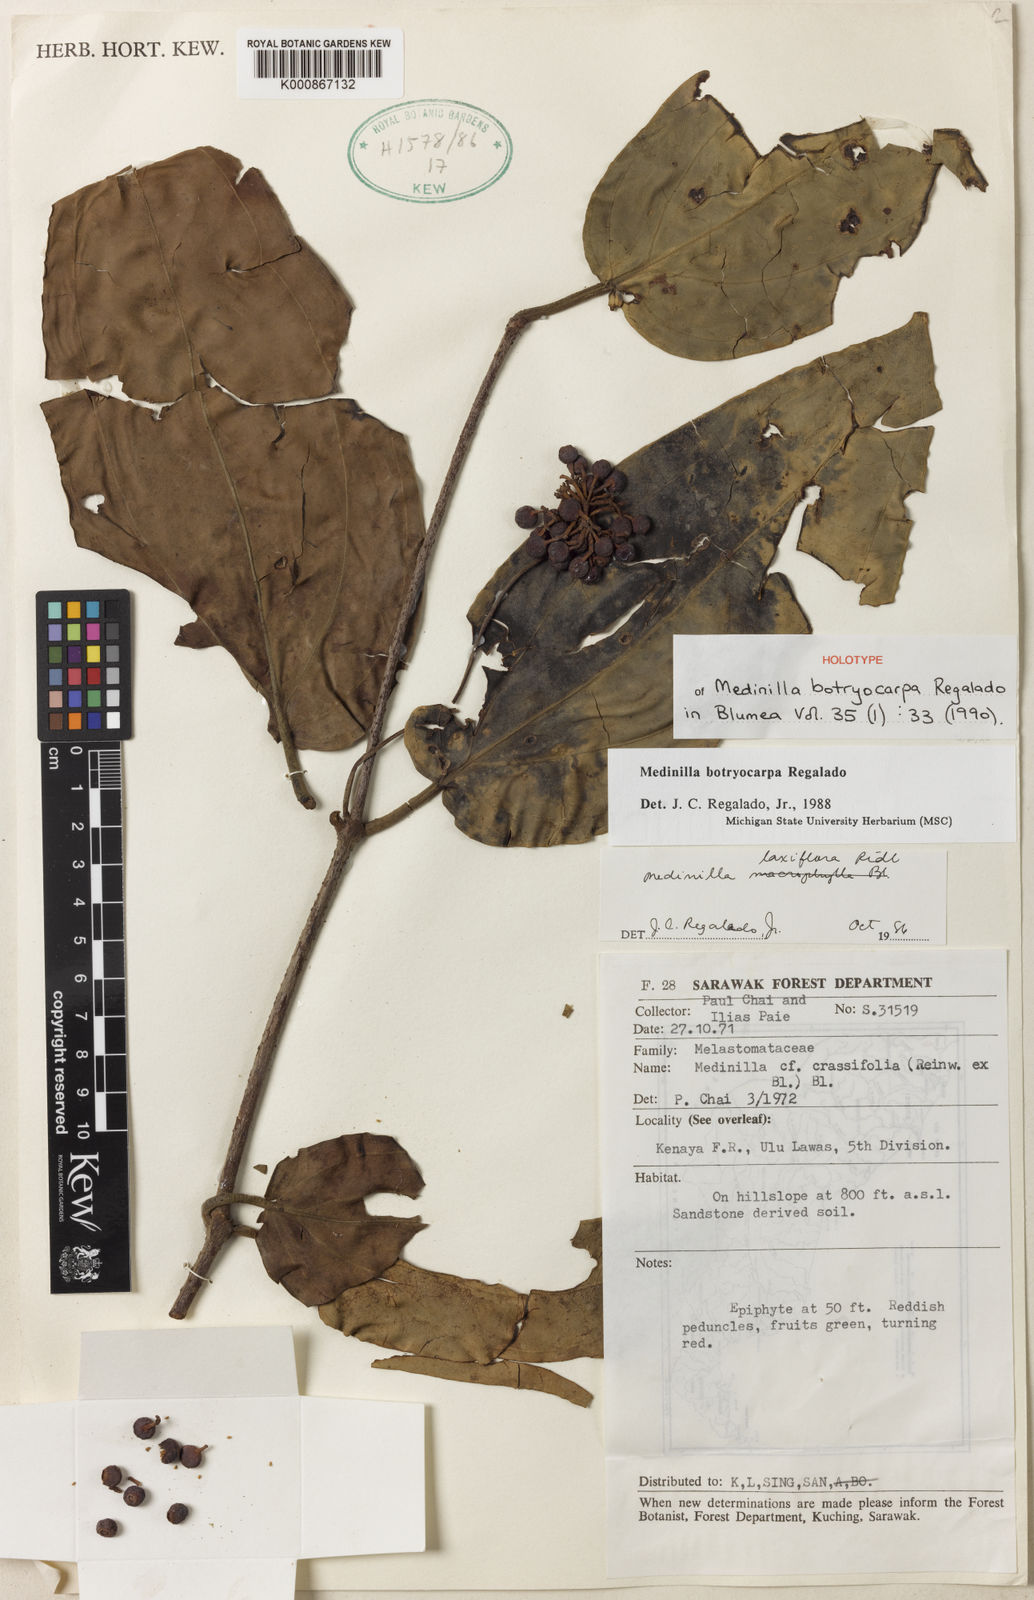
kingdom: Plantae
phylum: Tracheophyta
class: Magnoliopsida
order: Myrtales
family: Melastomataceae
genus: Medinilla
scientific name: Medinilla laxiflora
